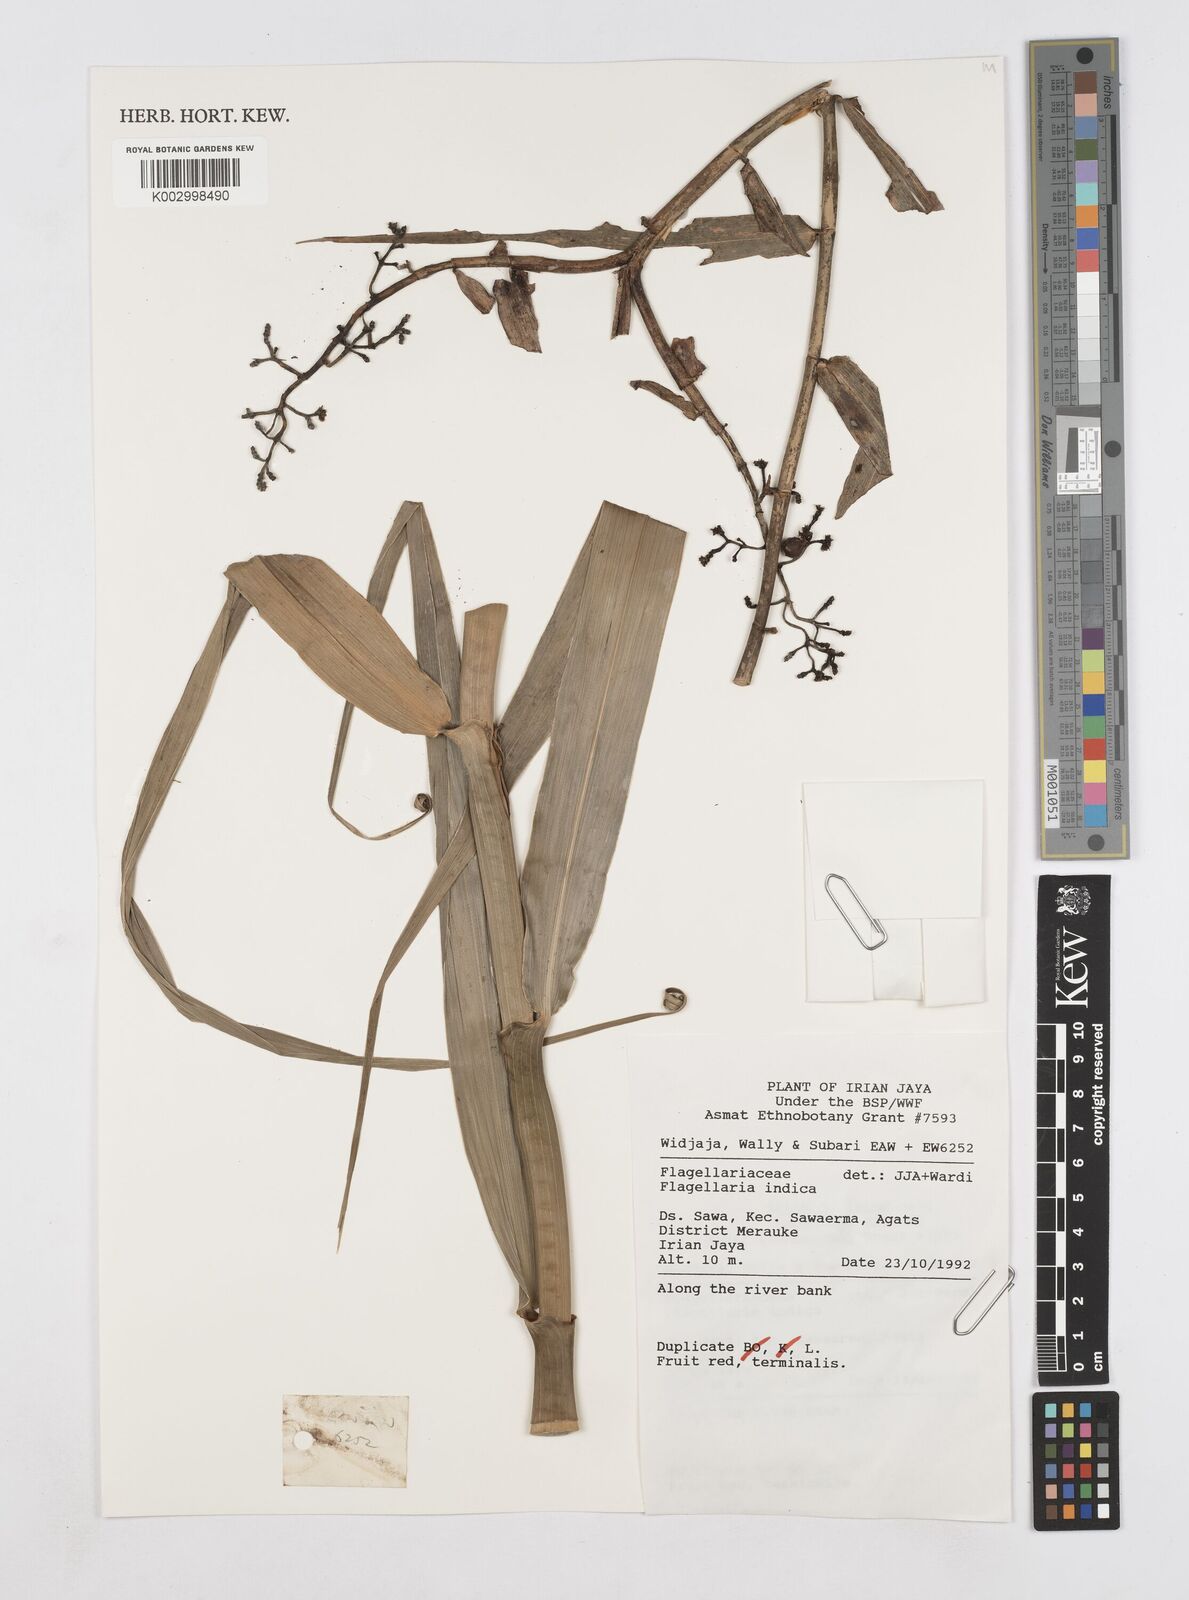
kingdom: Plantae
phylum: Tracheophyta
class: Liliopsida
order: Poales
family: Flagellariaceae
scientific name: Flagellariaceae
